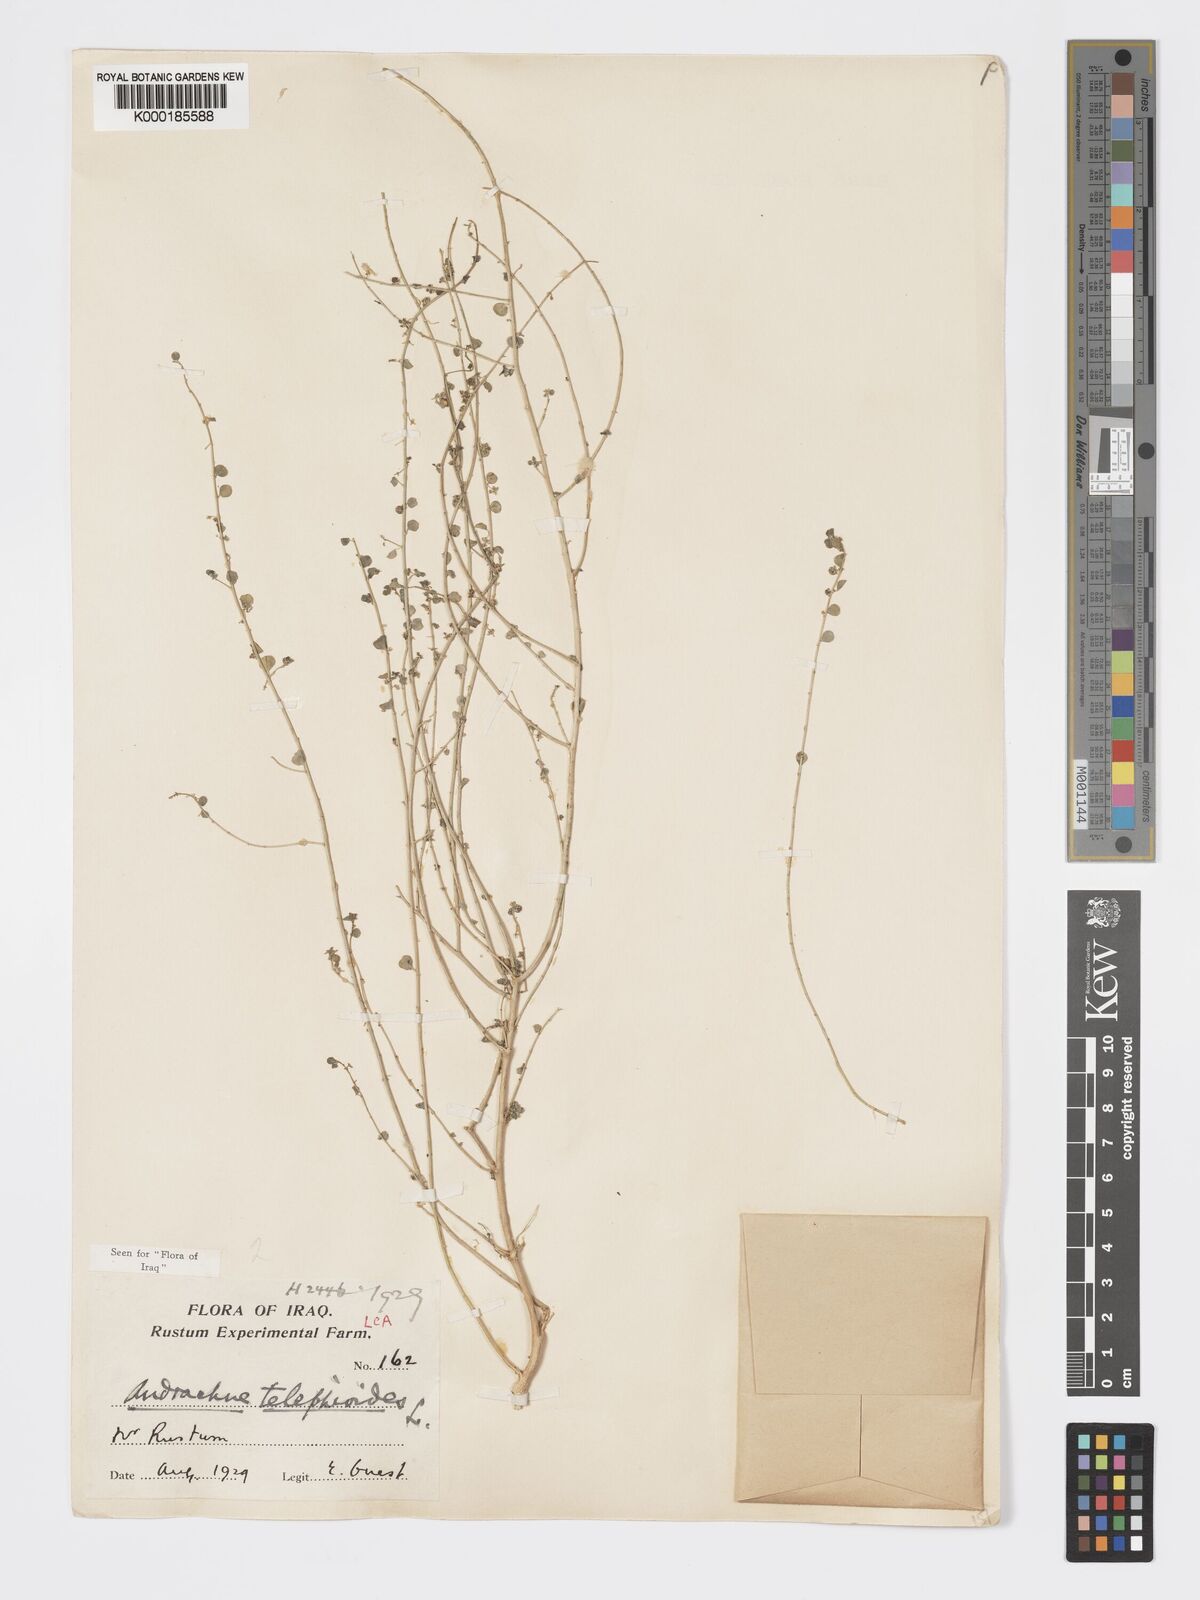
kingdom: Plantae
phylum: Tracheophyta
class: Magnoliopsida
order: Malpighiales
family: Phyllanthaceae
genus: Andrachne
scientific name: Andrachne telephioides
